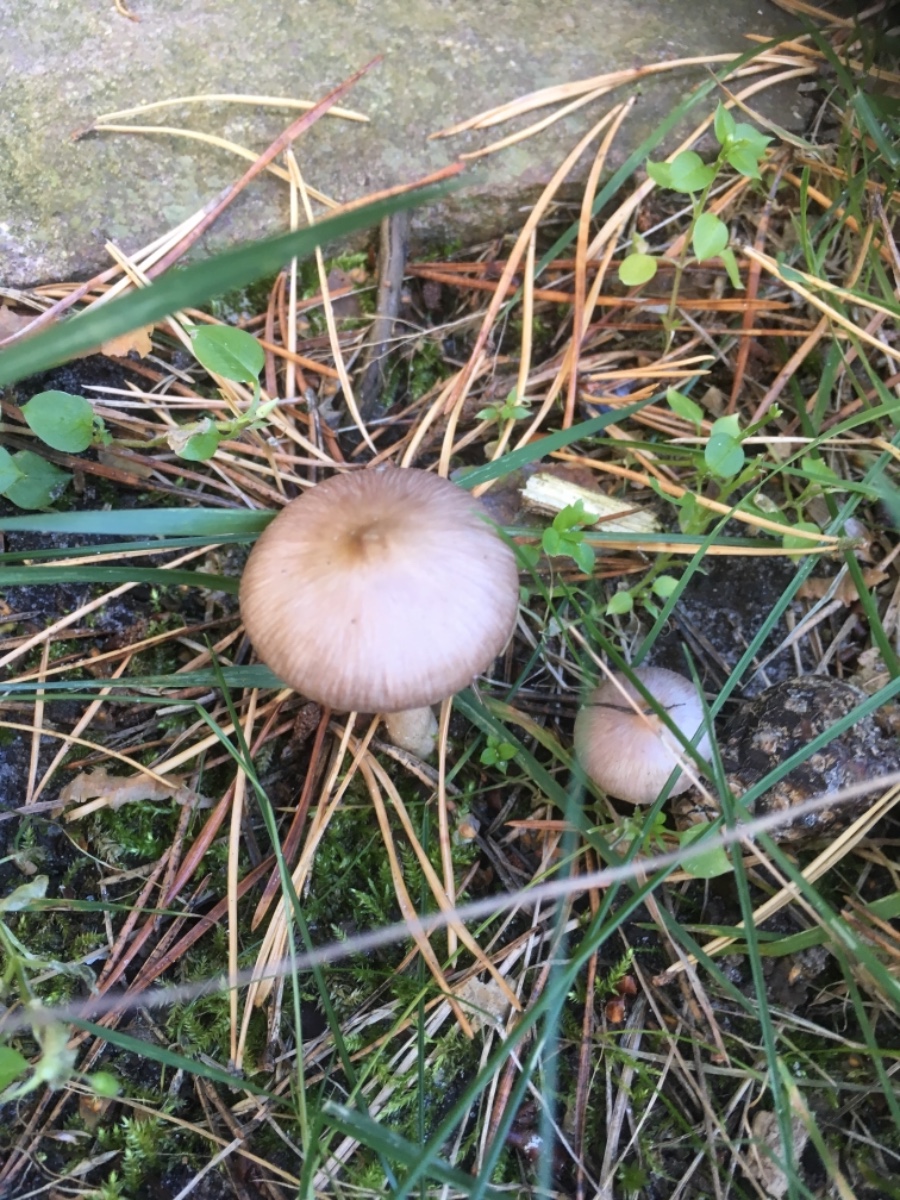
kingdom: Fungi
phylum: Basidiomycota
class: Agaricomycetes
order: Agaricales
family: Cortinariaceae
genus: Cortinarius
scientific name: Cortinarius
